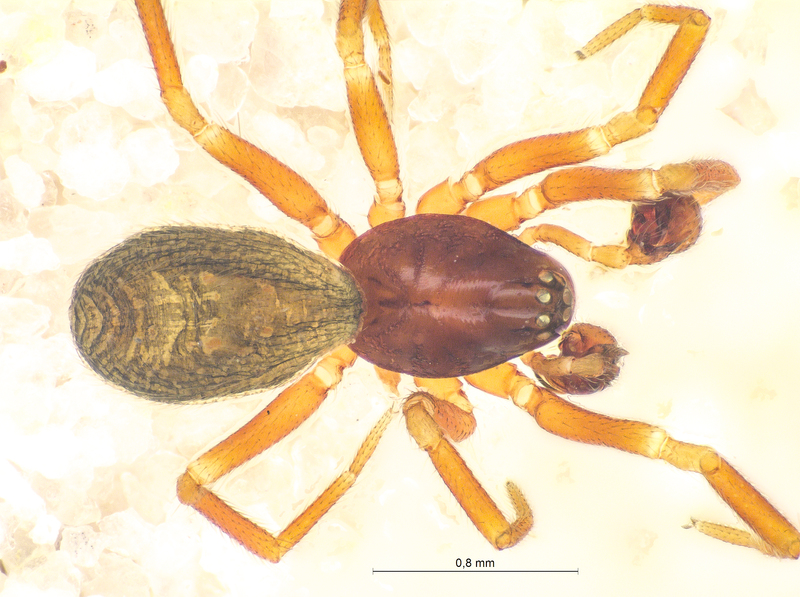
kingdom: Animalia
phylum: Arthropoda
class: Arachnida
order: Araneae
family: Linyphiidae
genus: Walckenaeria
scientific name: Walckenaeria dysderoides
